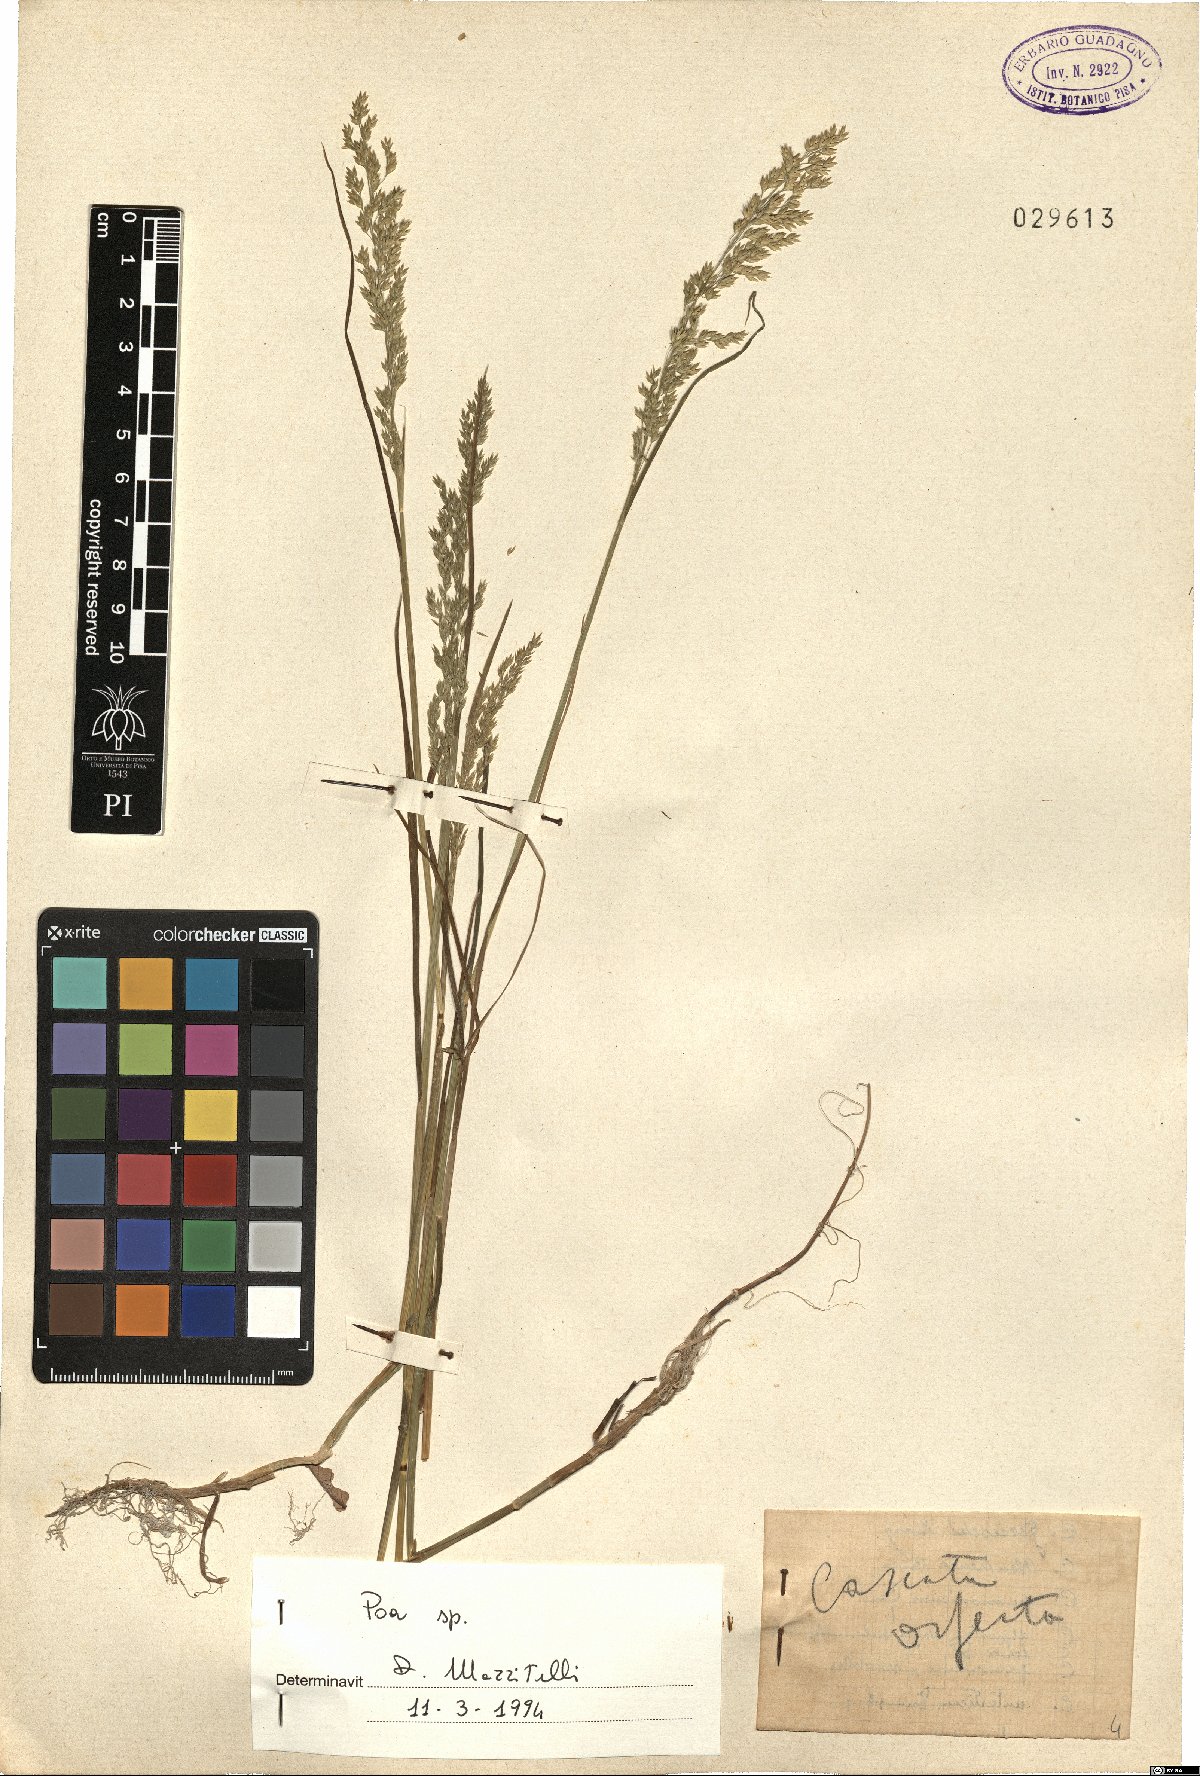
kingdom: Plantae
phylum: Tracheophyta
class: Liliopsida
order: Poales
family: Poaceae
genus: Poa
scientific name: Poa
